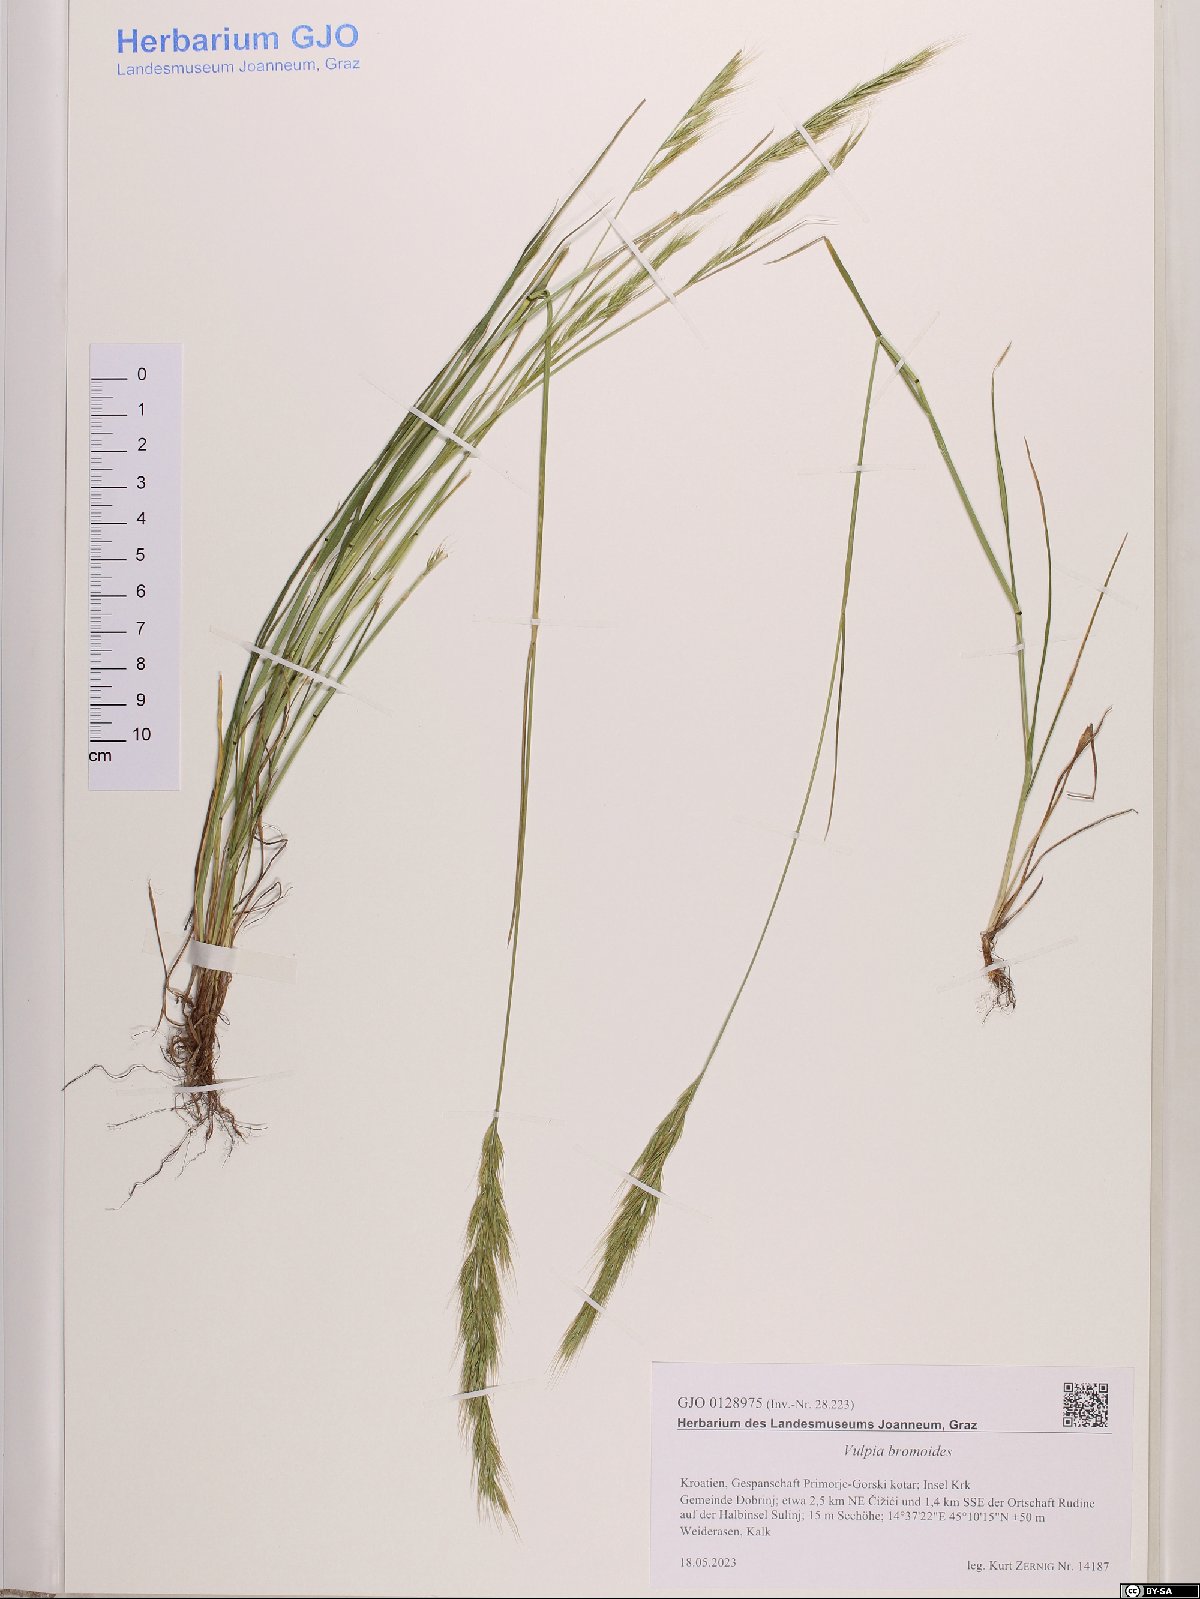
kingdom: Plantae
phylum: Tracheophyta
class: Liliopsida
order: Poales
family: Poaceae
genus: Festuca
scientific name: Festuca bromoides
